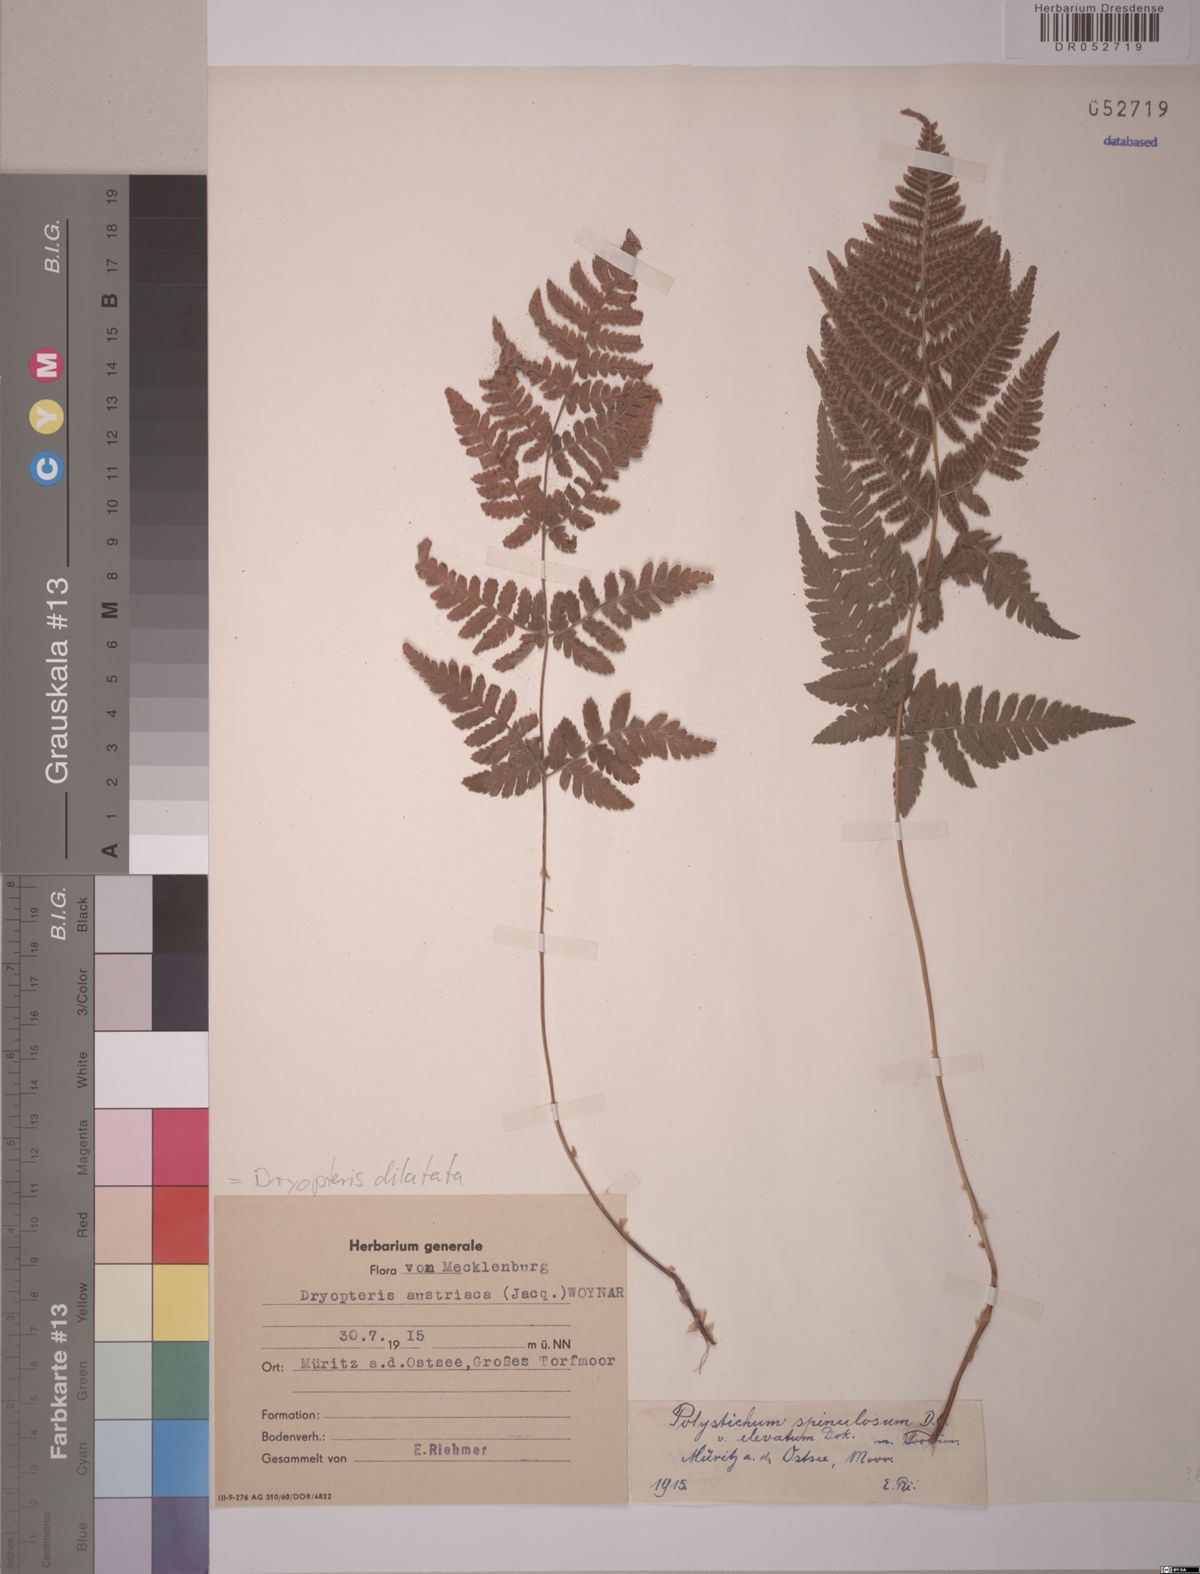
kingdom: Plantae
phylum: Tracheophyta
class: Polypodiopsida
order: Polypodiales
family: Dryopteridaceae
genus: Dryopteris
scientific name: Dryopteris dilatata
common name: Broad buckler-fern
